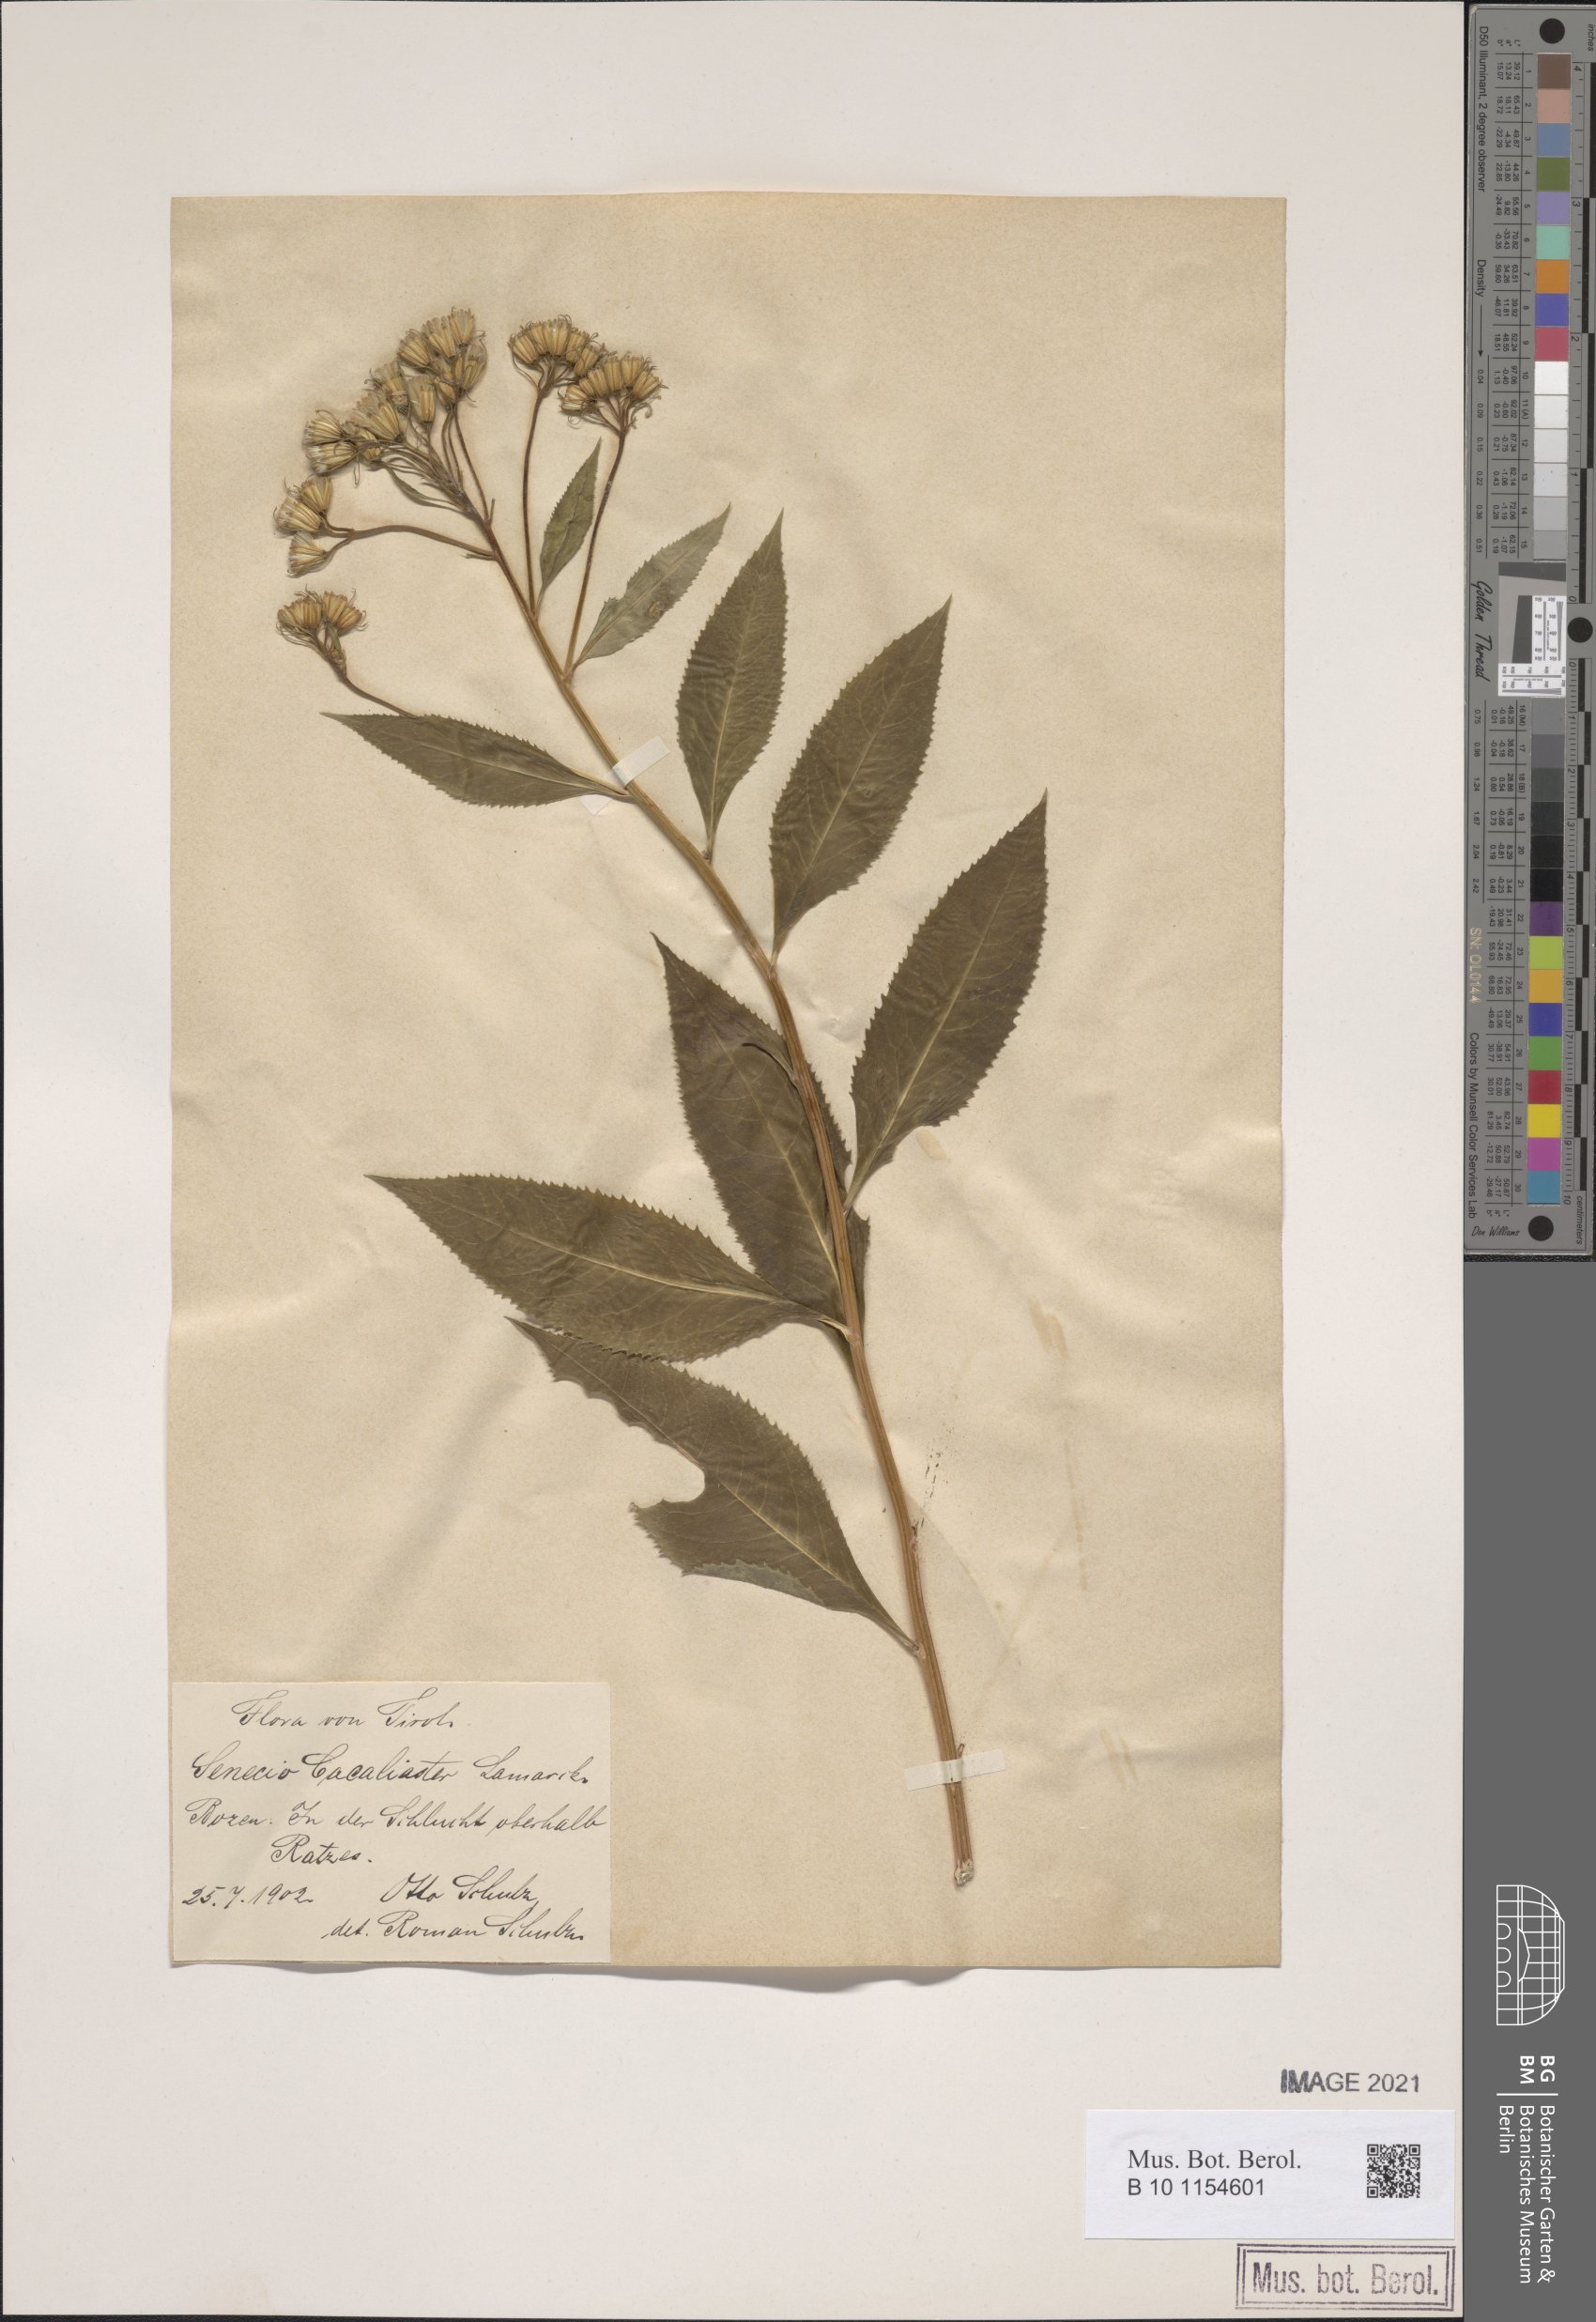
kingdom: Plantae
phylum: Tracheophyta
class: Magnoliopsida
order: Asterales
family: Asteraceae
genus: Senecio
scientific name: Senecio cacaliaster
